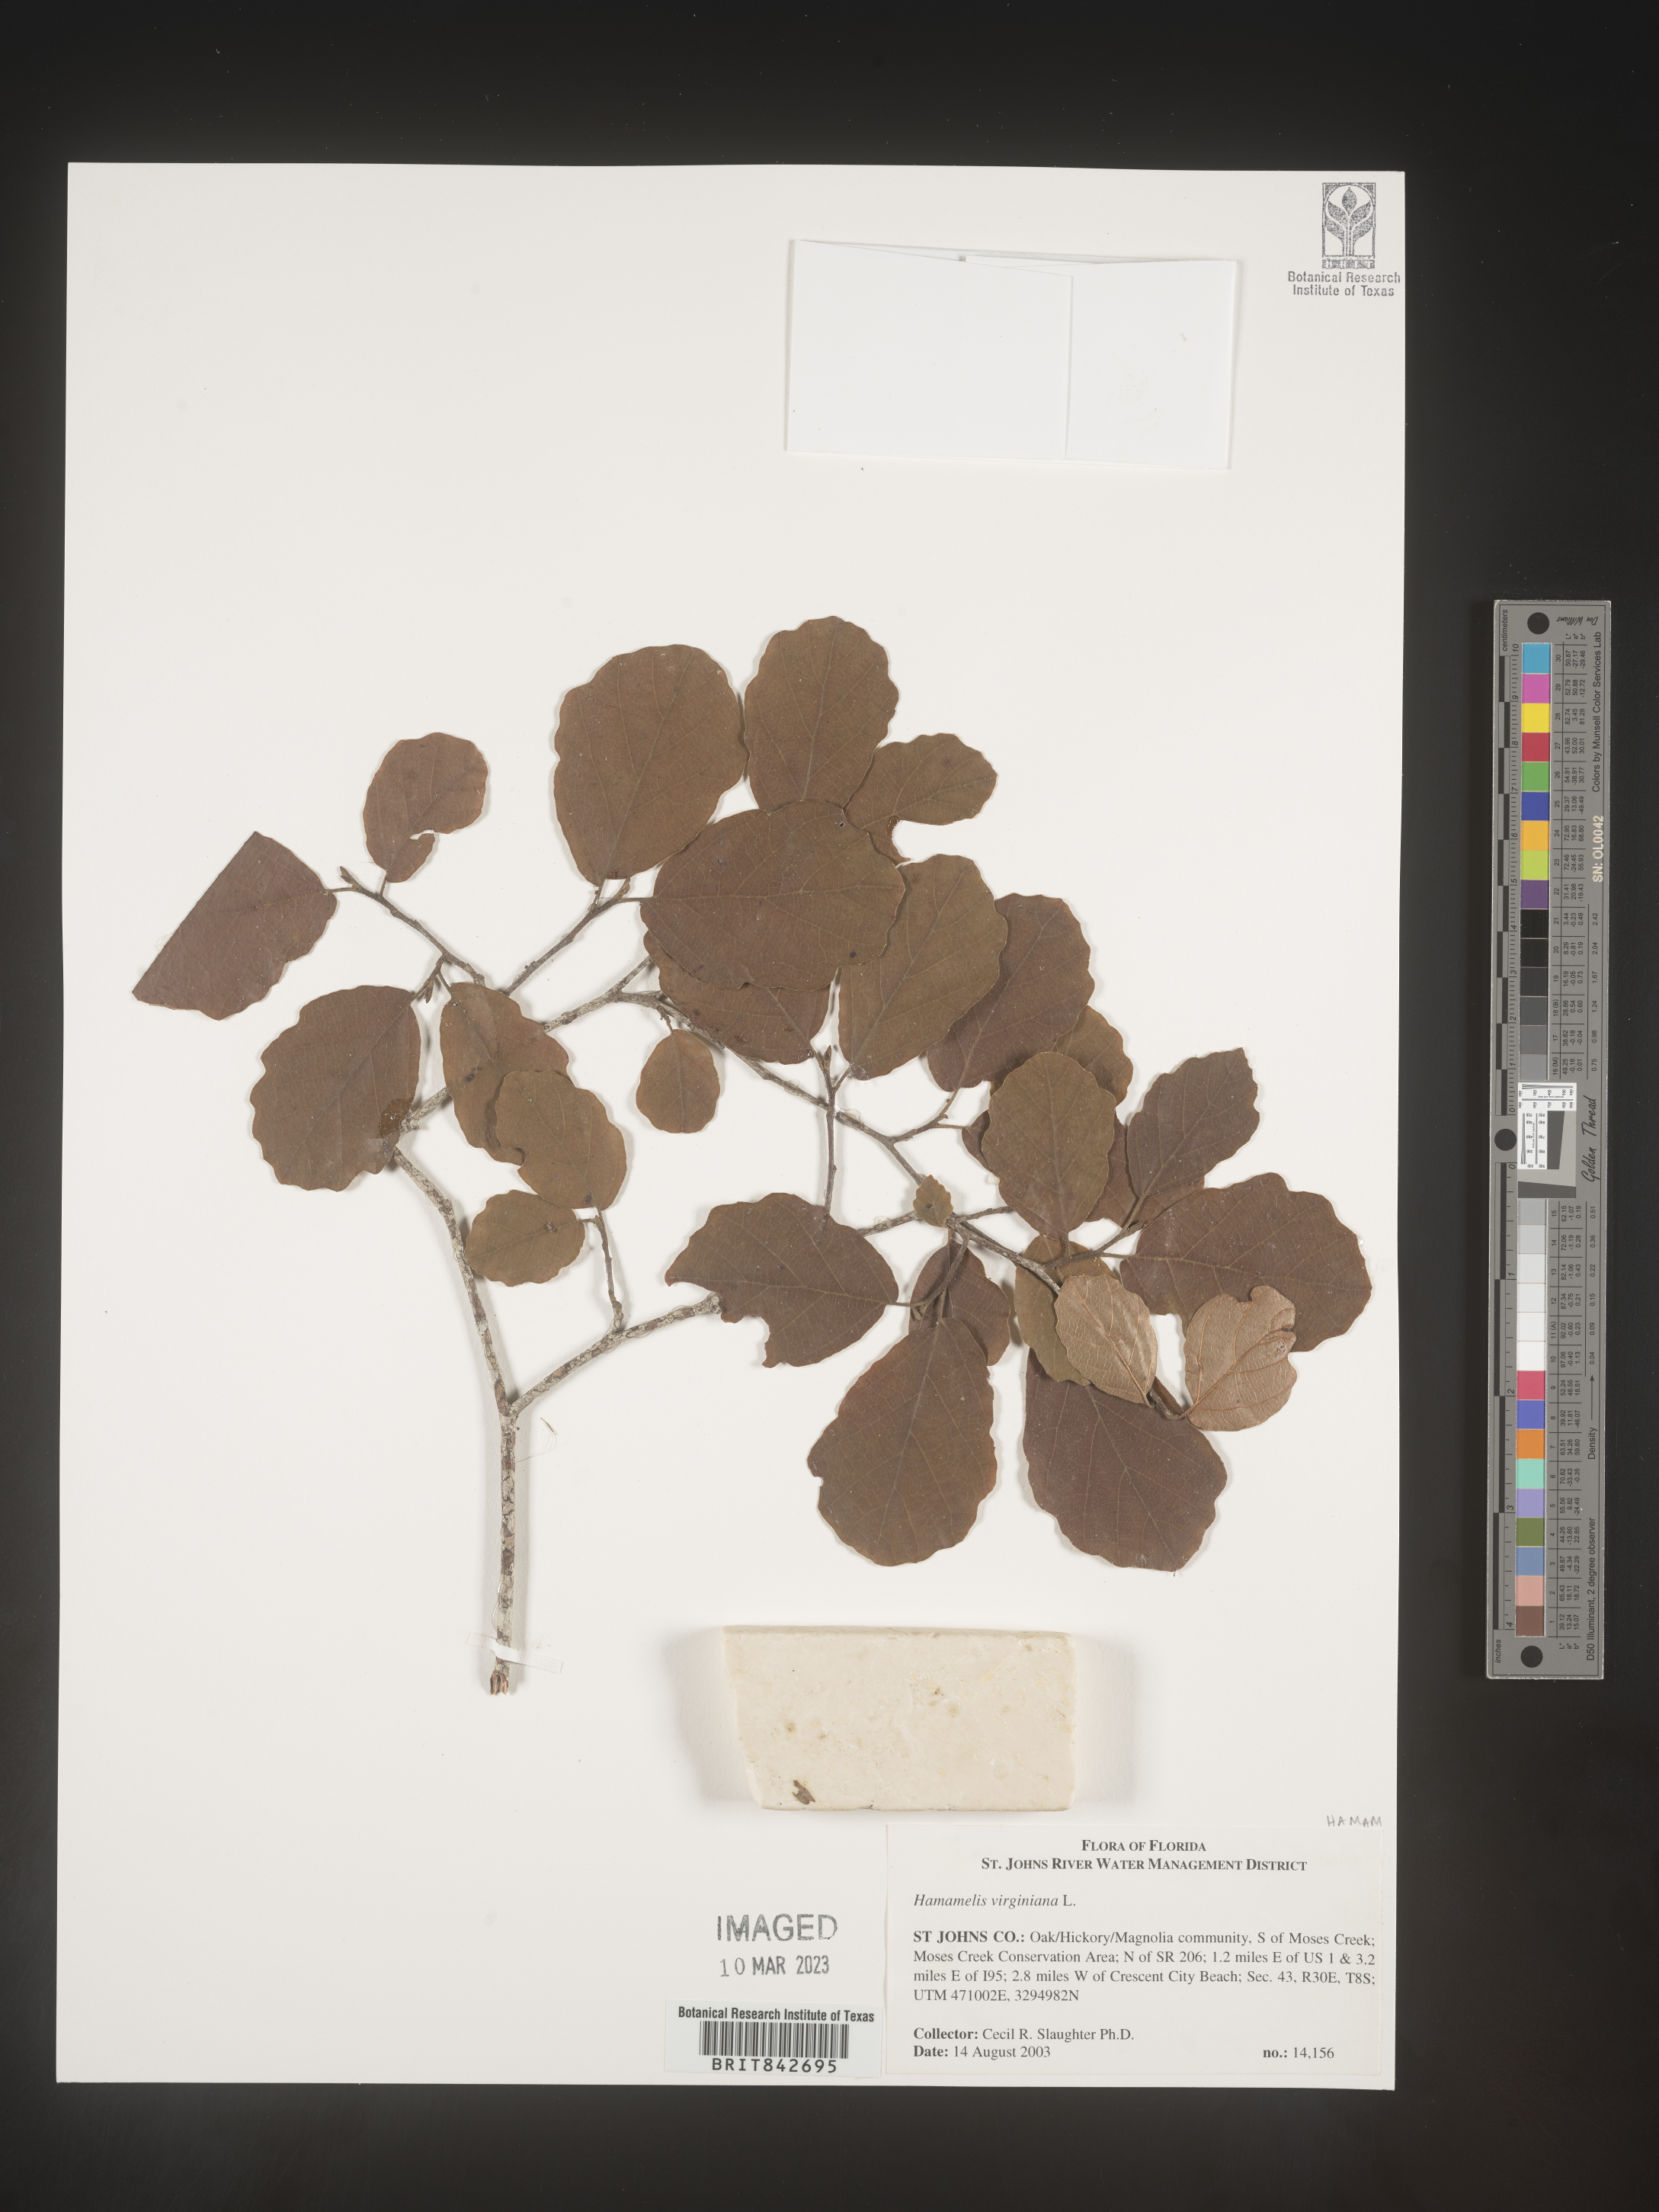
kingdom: Plantae
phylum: Tracheophyta
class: Magnoliopsida
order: Saxifragales
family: Hamamelidaceae
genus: Hamamelis
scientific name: Hamamelis virginiana
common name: Witch-hazel
